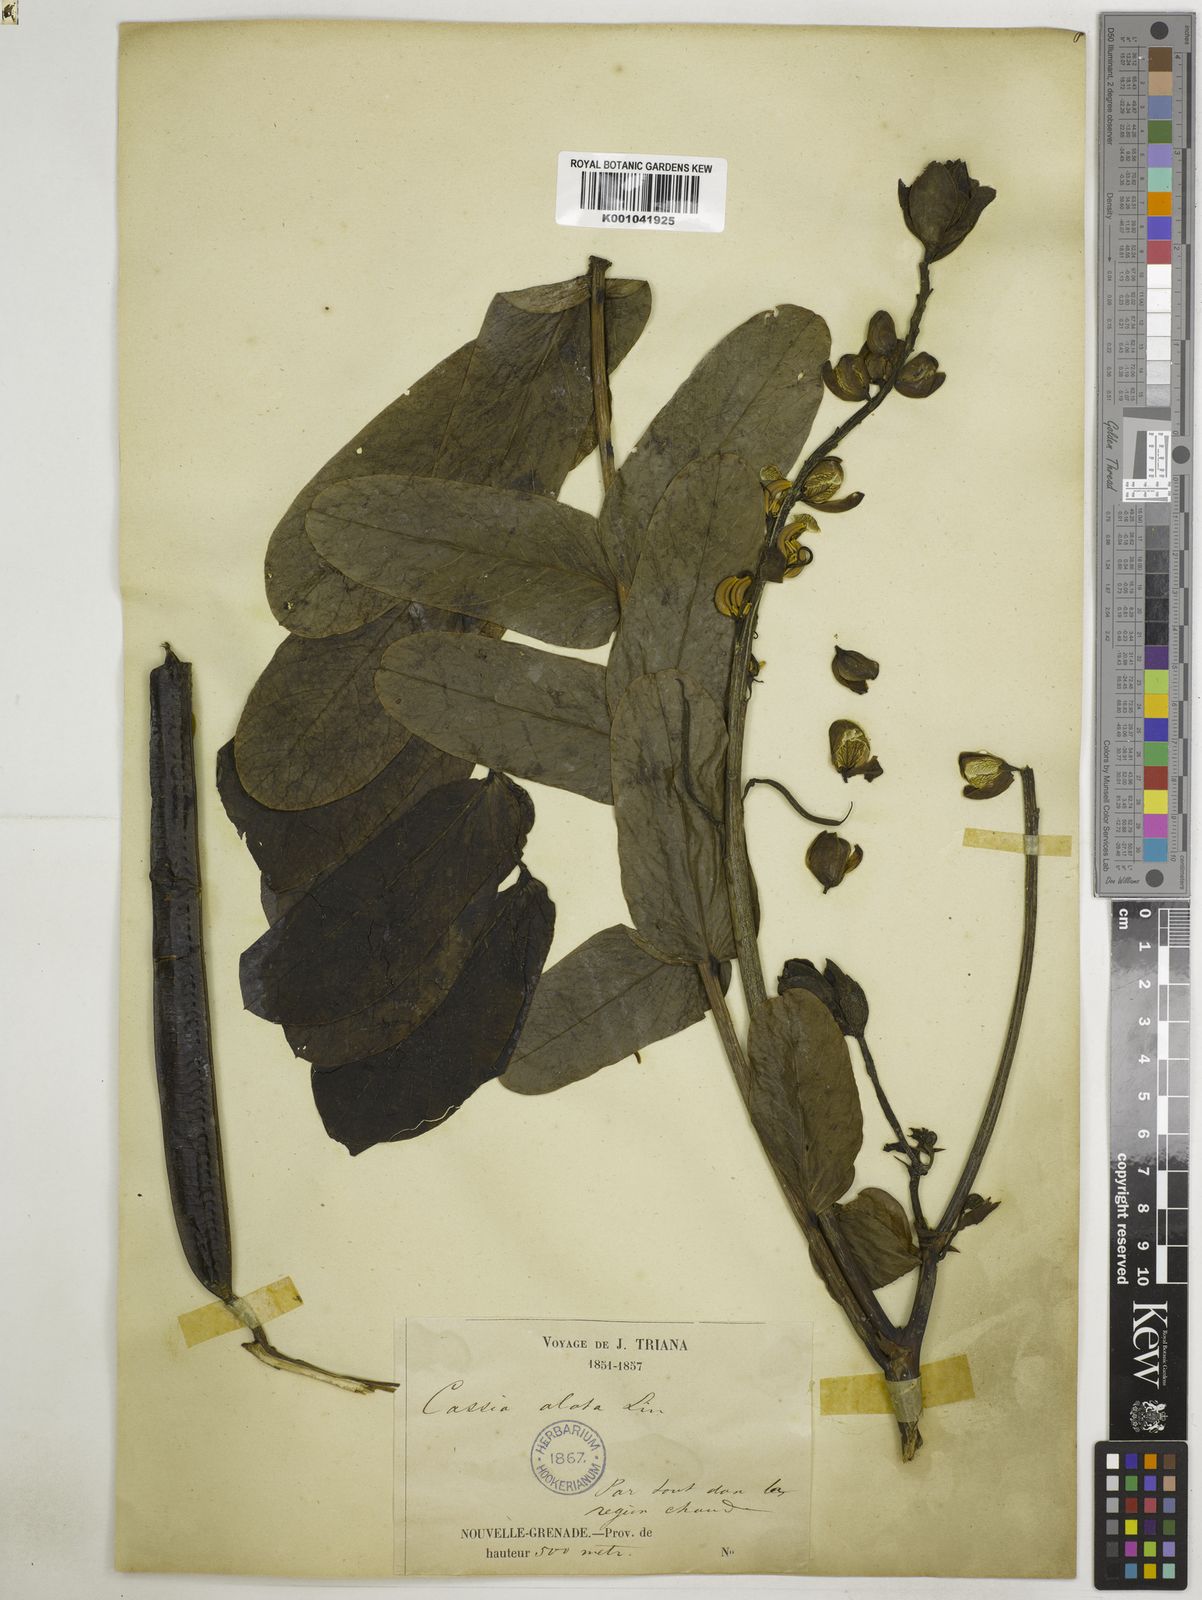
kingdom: Plantae
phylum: Tracheophyta
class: Magnoliopsida
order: Fabales
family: Fabaceae
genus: Senna
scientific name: Senna alata
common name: Emperor's candlesticks
